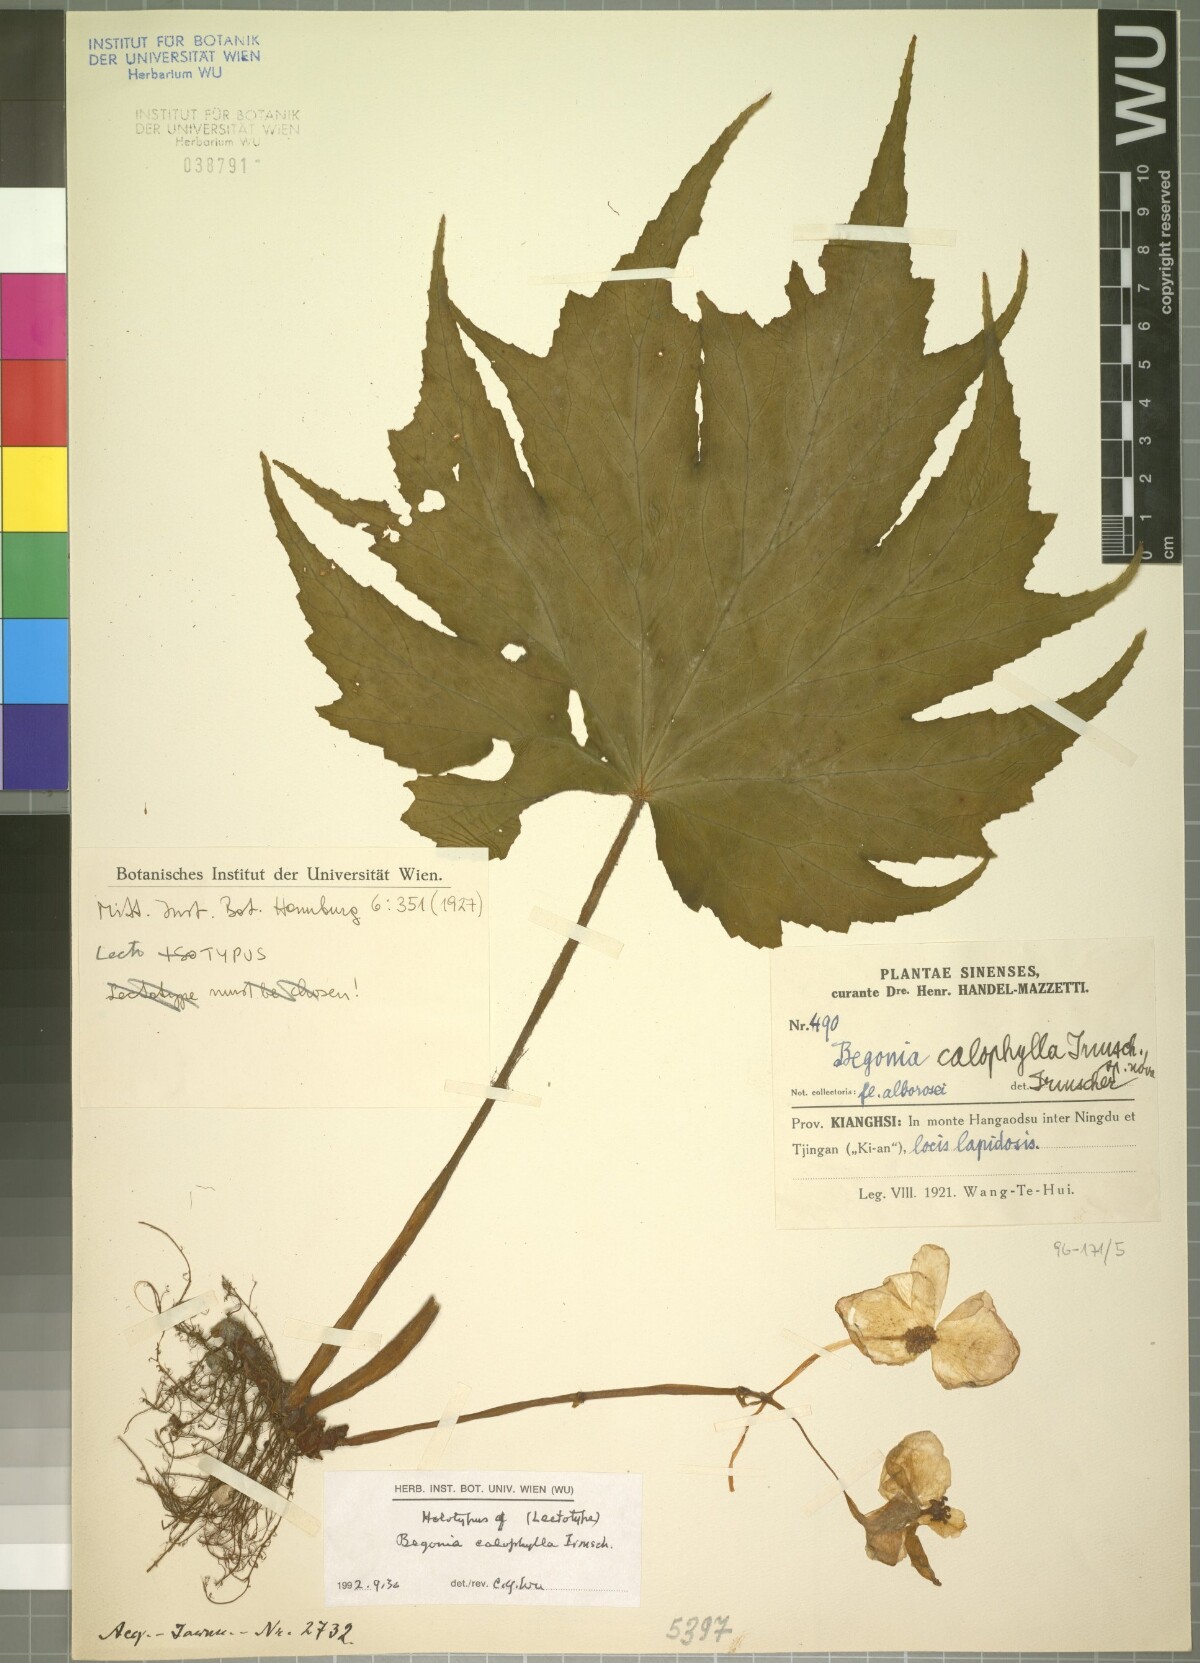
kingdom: Plantae
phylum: Tracheophyta
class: Magnoliopsida
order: Cucurbitales
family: Begoniaceae
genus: Begonia
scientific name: Begonia algaia
